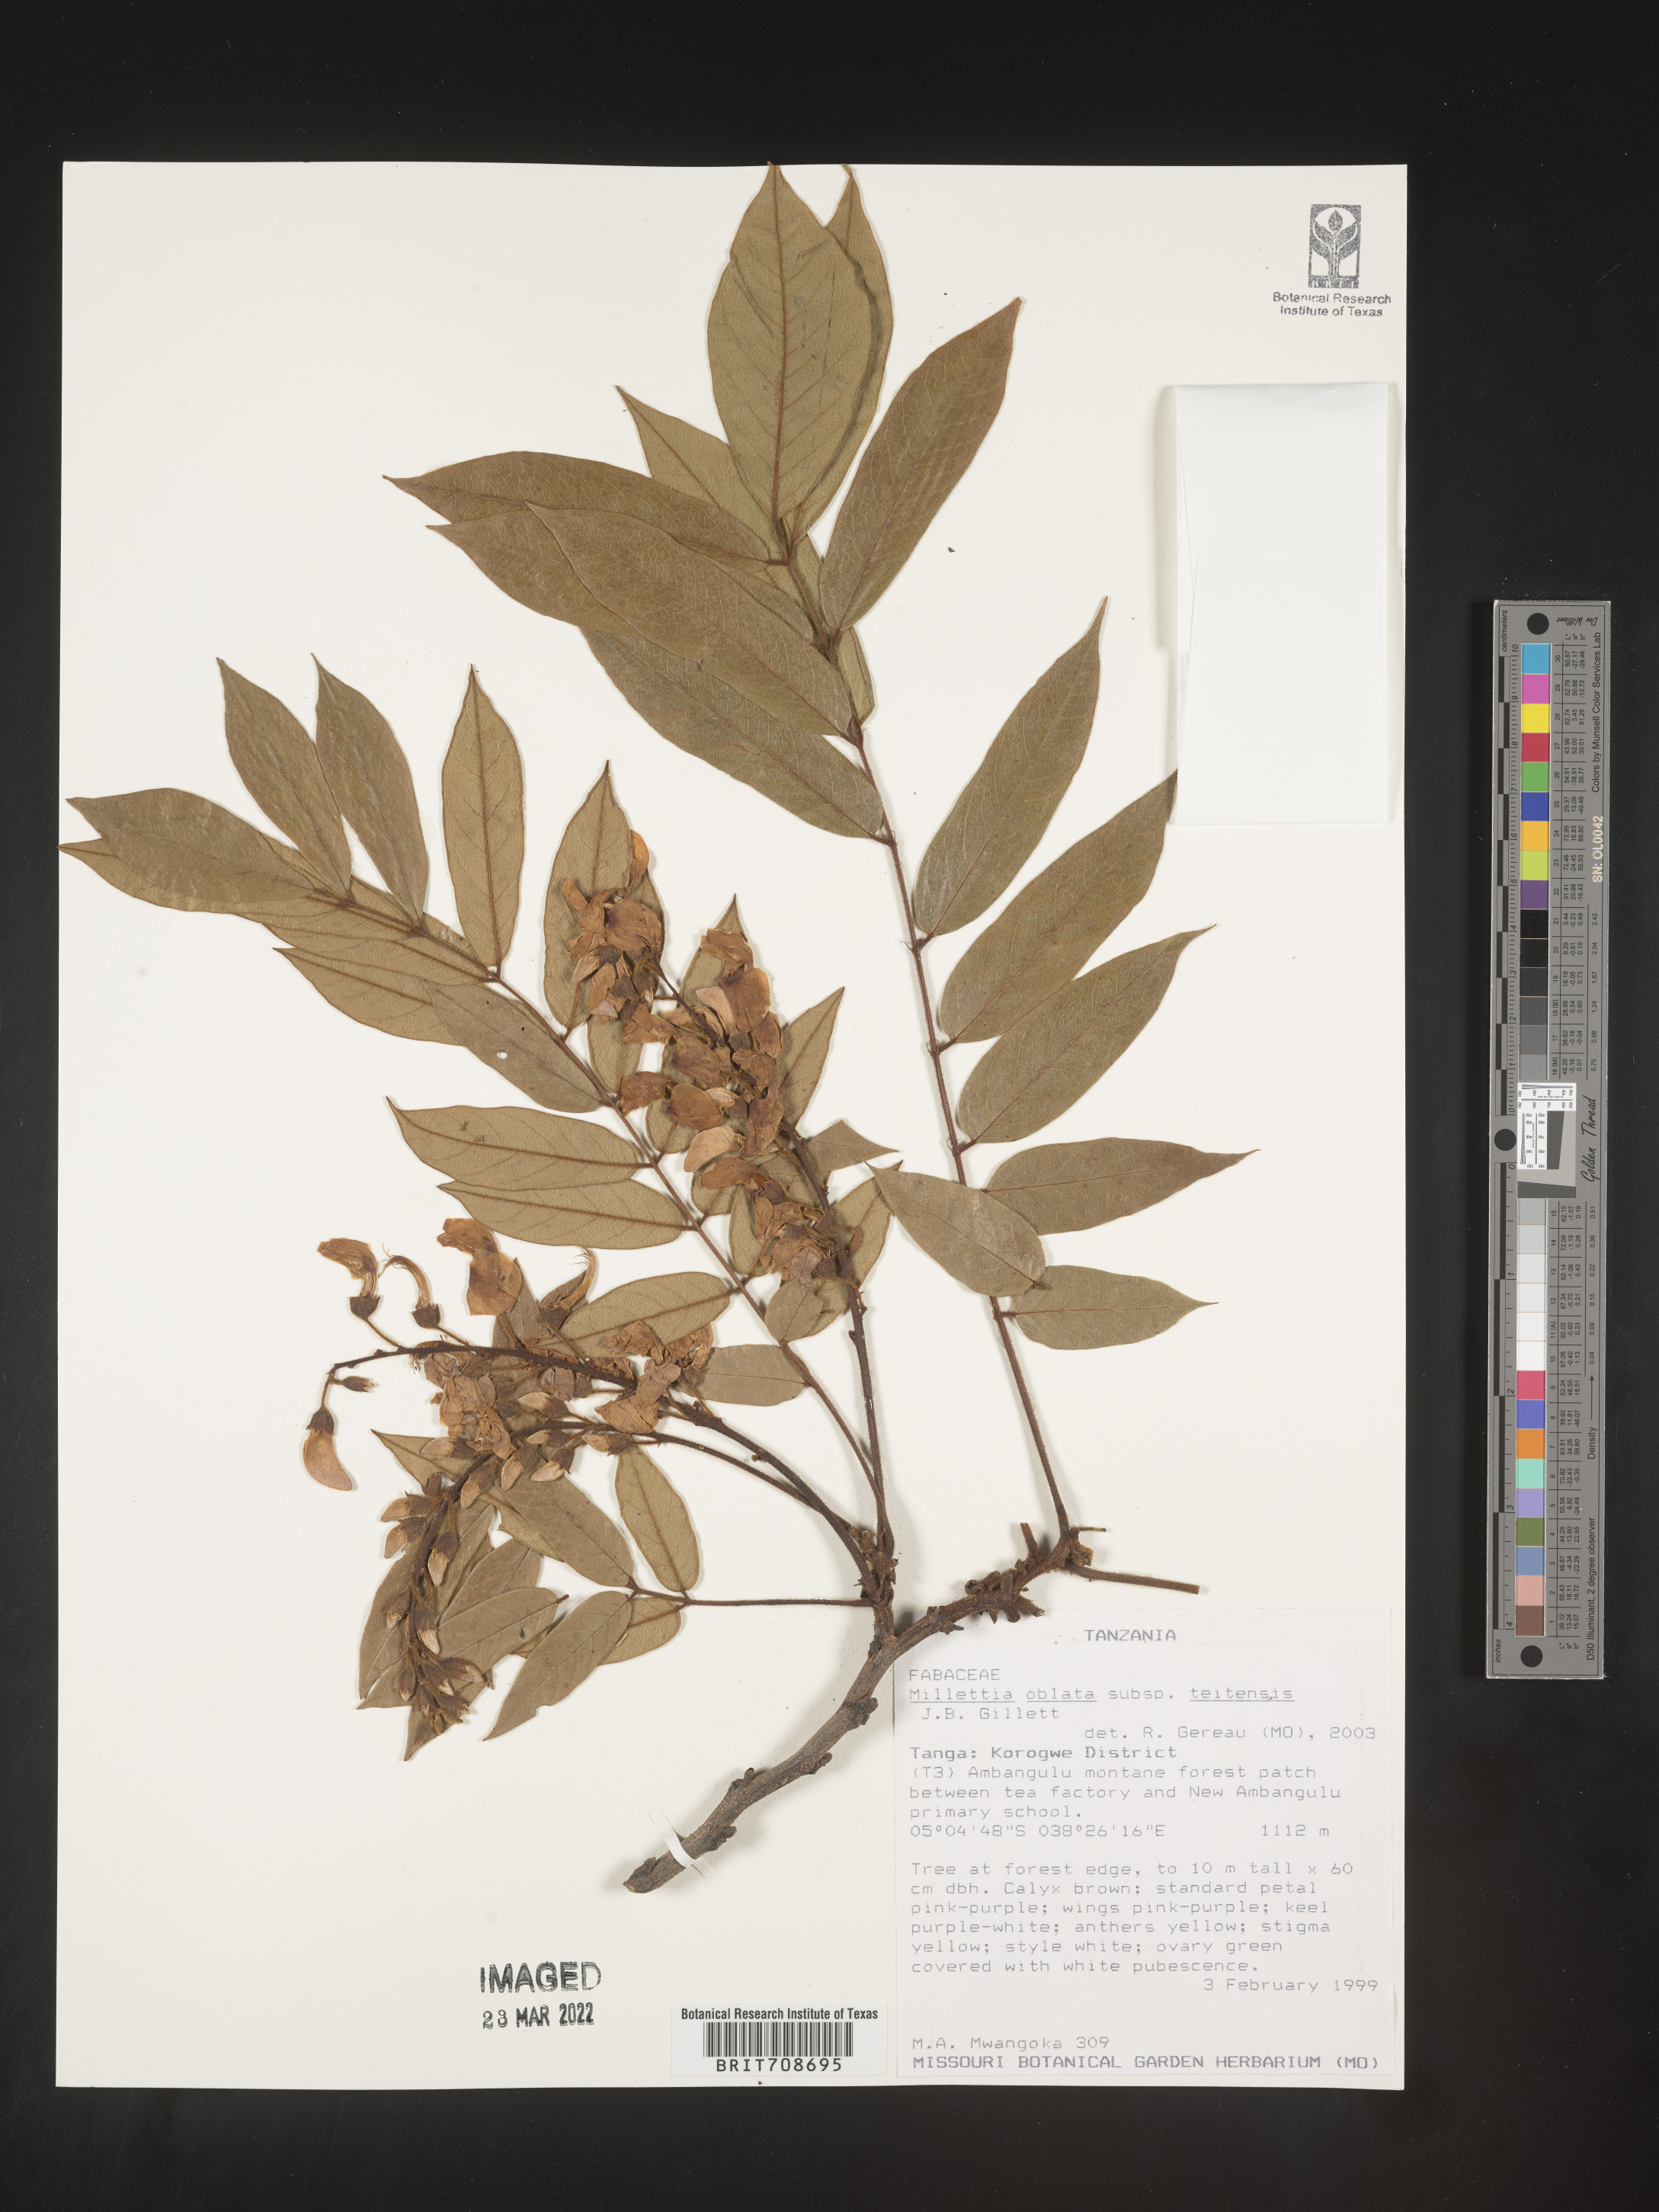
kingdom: Plantae
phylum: Tracheophyta
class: Magnoliopsida
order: Fabales
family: Fabaceae
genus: Millettia
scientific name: Millettia
